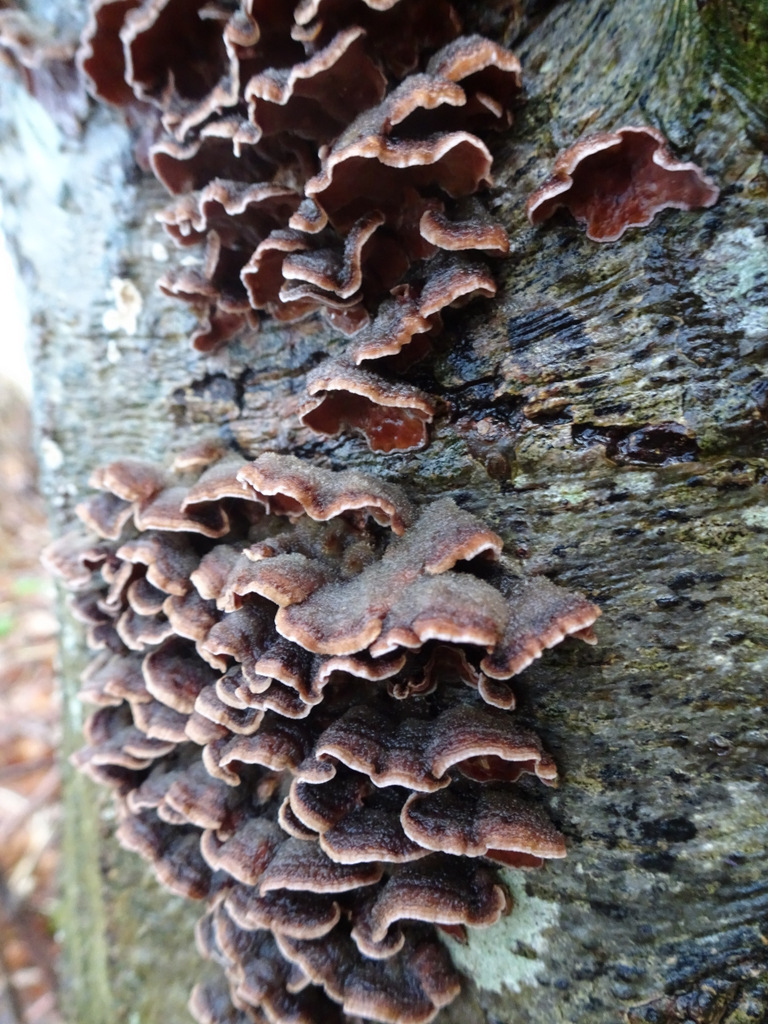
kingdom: Fungi
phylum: Basidiomycota
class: Agaricomycetes
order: Agaricales
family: Cyphellaceae
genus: Chondrostereum
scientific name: Chondrostereum purpureum
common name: purpurlædersvamp
